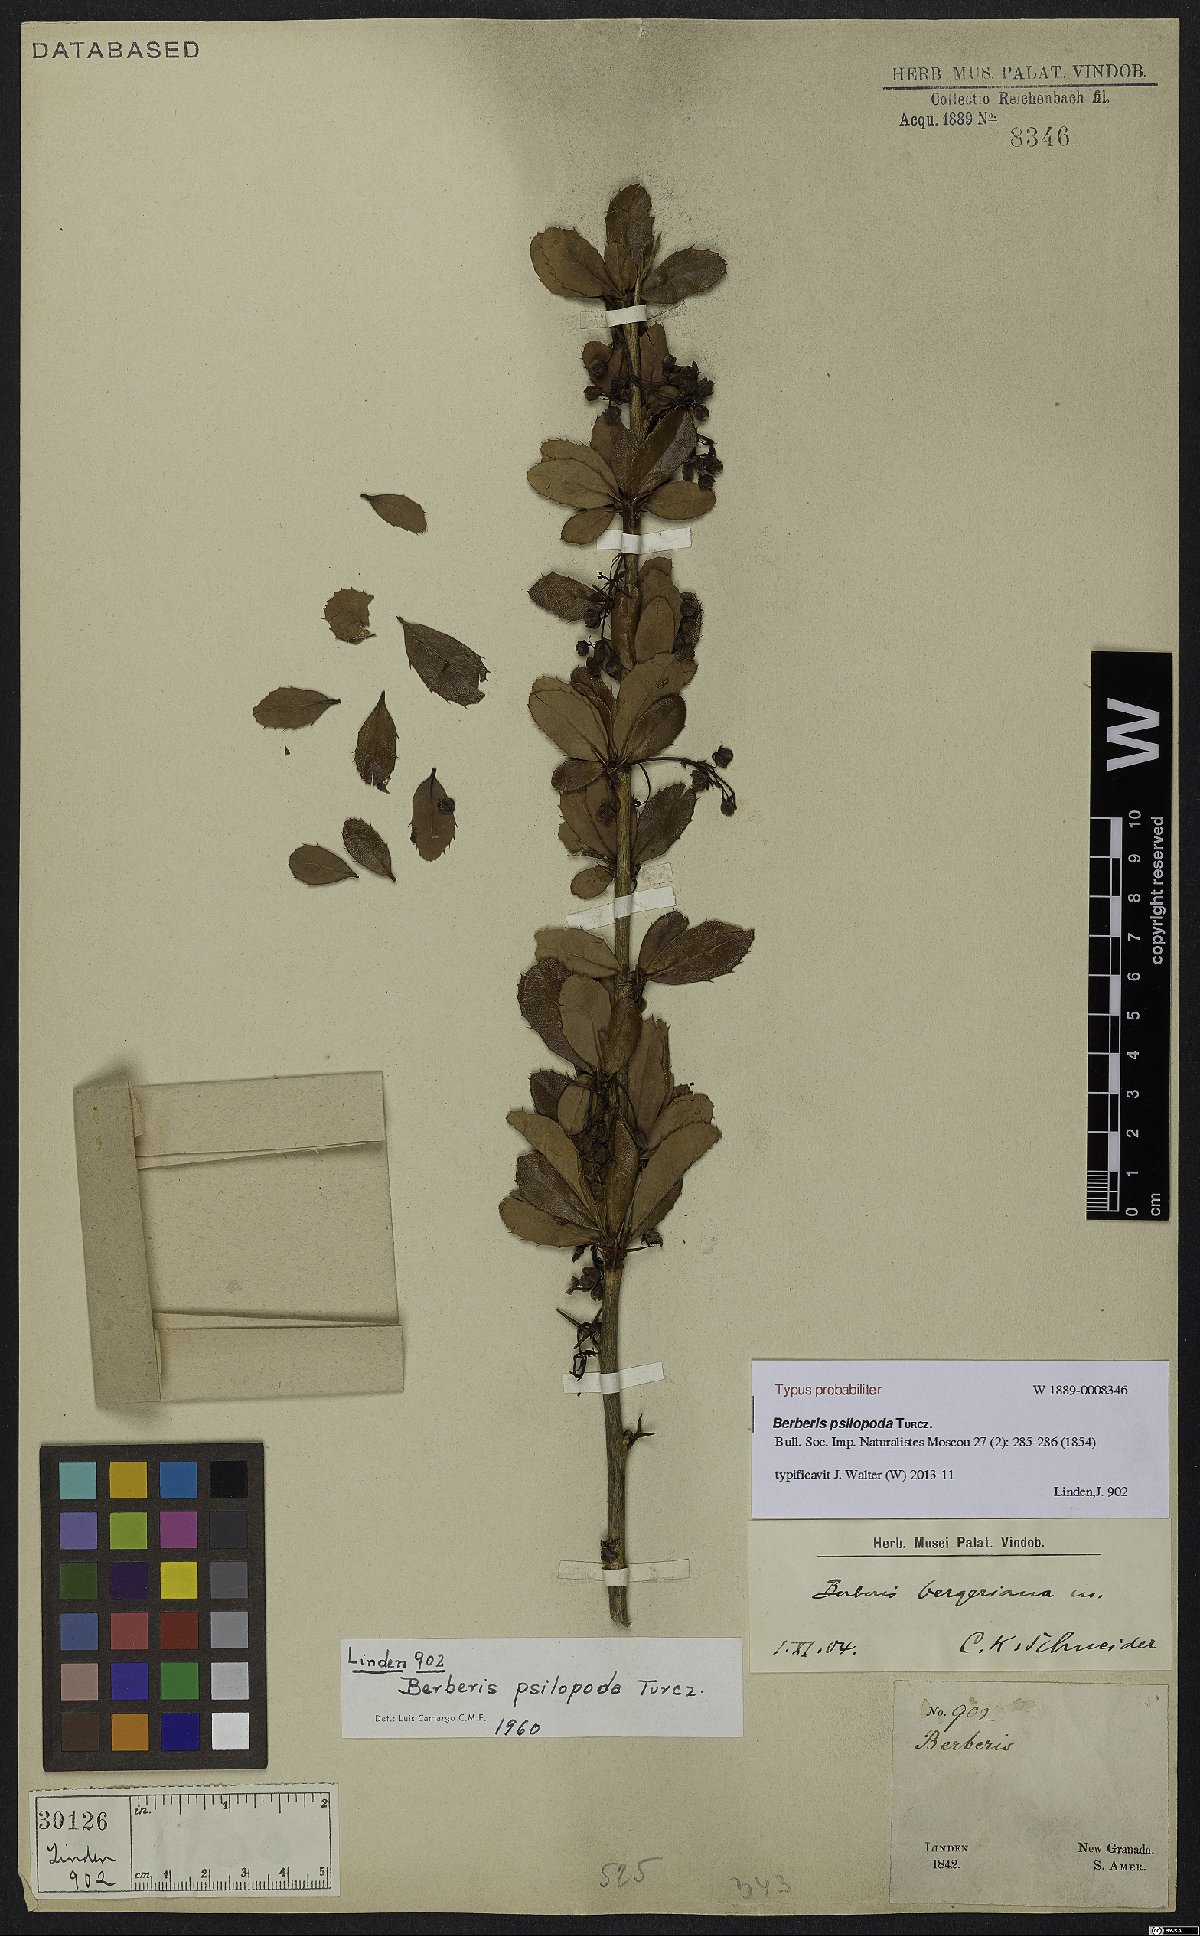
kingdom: Plantae
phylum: Tracheophyta
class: Magnoliopsida
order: Ranunculales
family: Berberidaceae
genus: Berberis
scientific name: Berberis psilopoda
